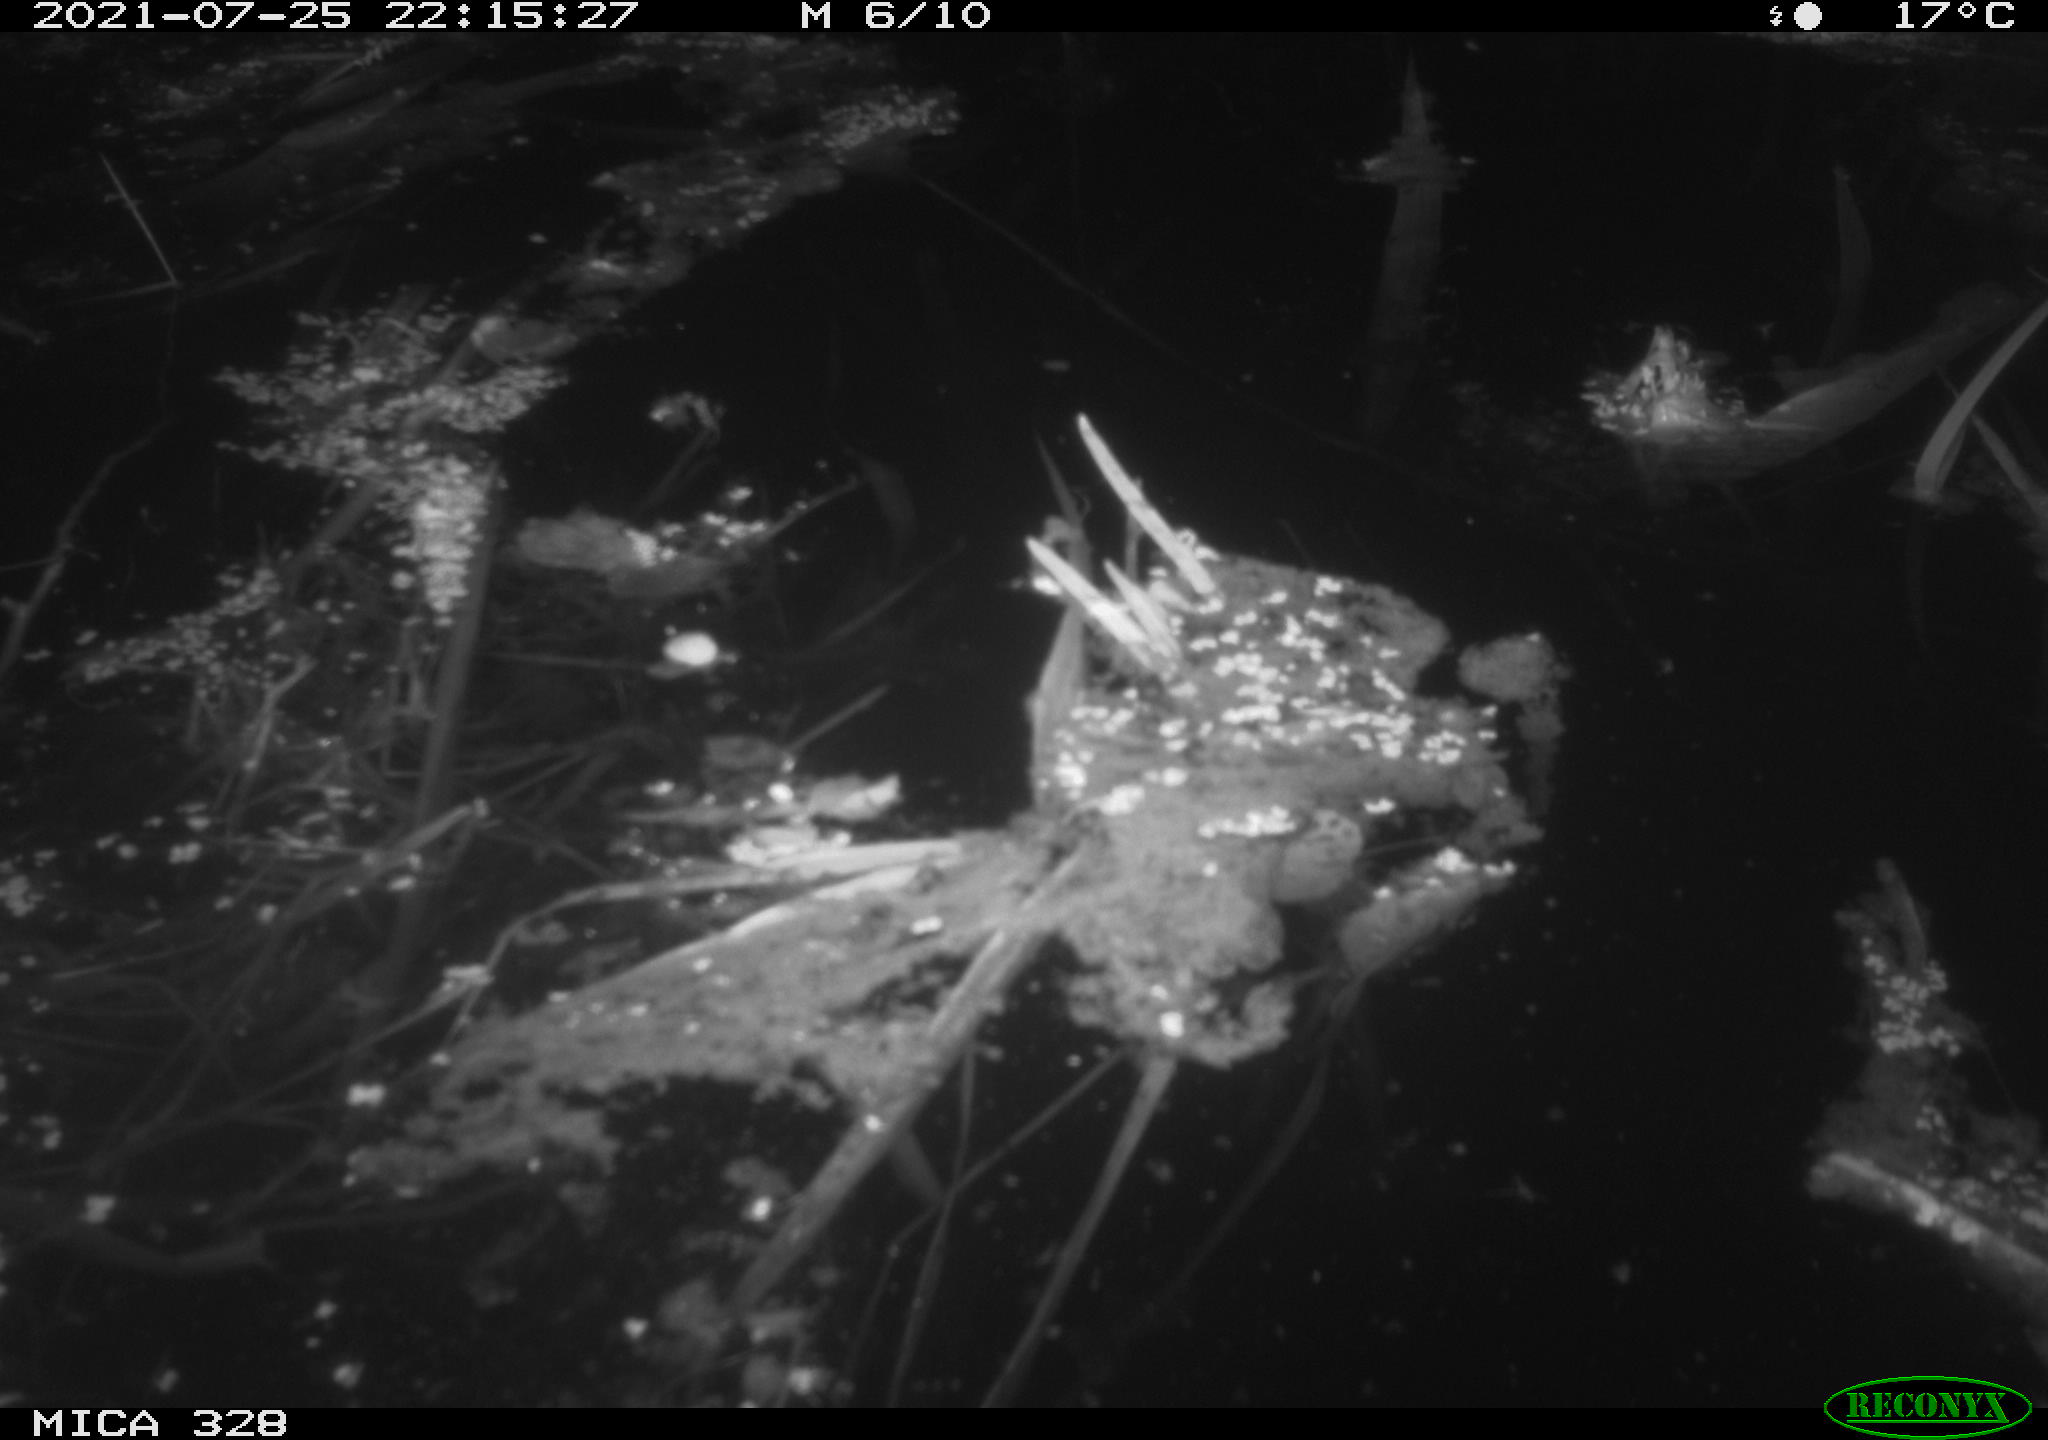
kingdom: Animalia
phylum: Chordata
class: Mammalia
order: Rodentia
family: Cricetidae
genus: Ondatra
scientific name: Ondatra zibethicus
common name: Muskrat
